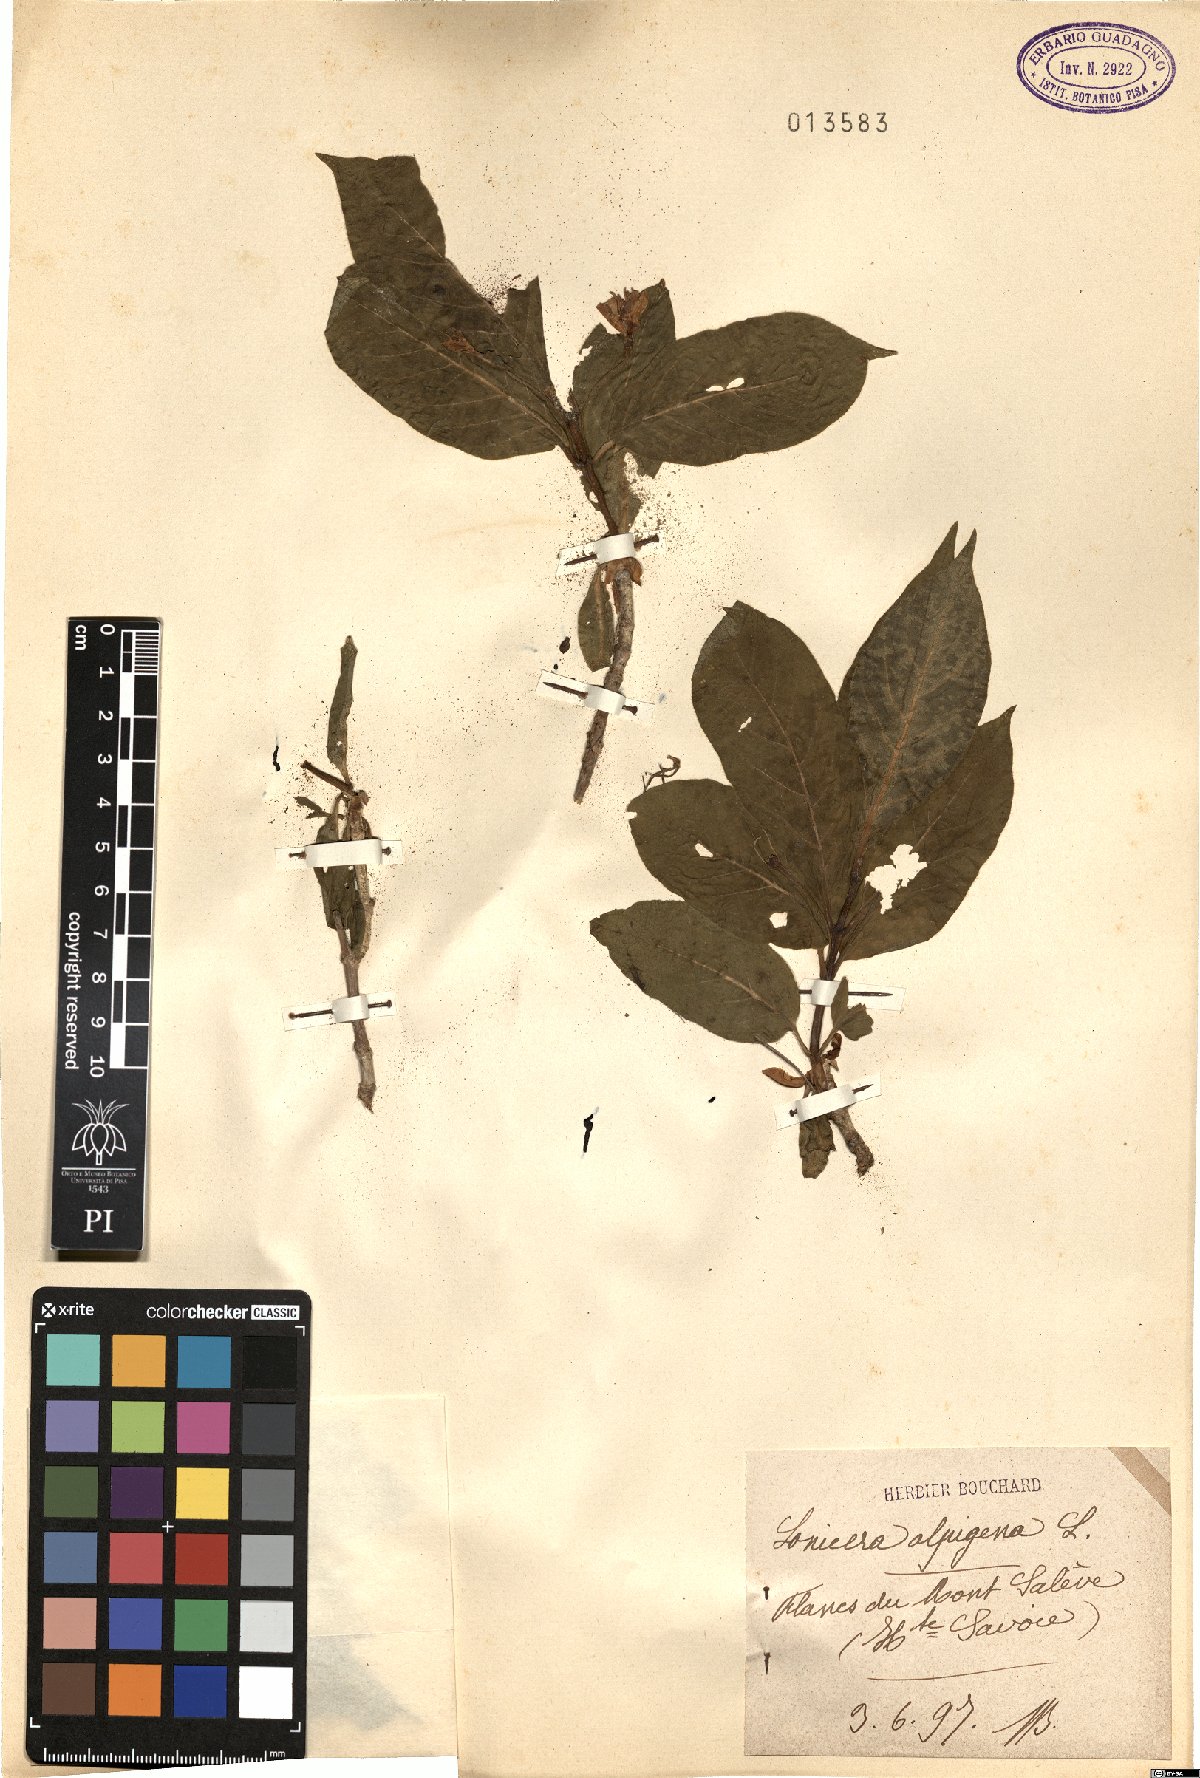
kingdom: Plantae
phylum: Tracheophyta
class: Magnoliopsida
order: Dipsacales
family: Caprifoliaceae
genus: Lonicera
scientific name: Lonicera alpigena
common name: Alpine honeysuckle
